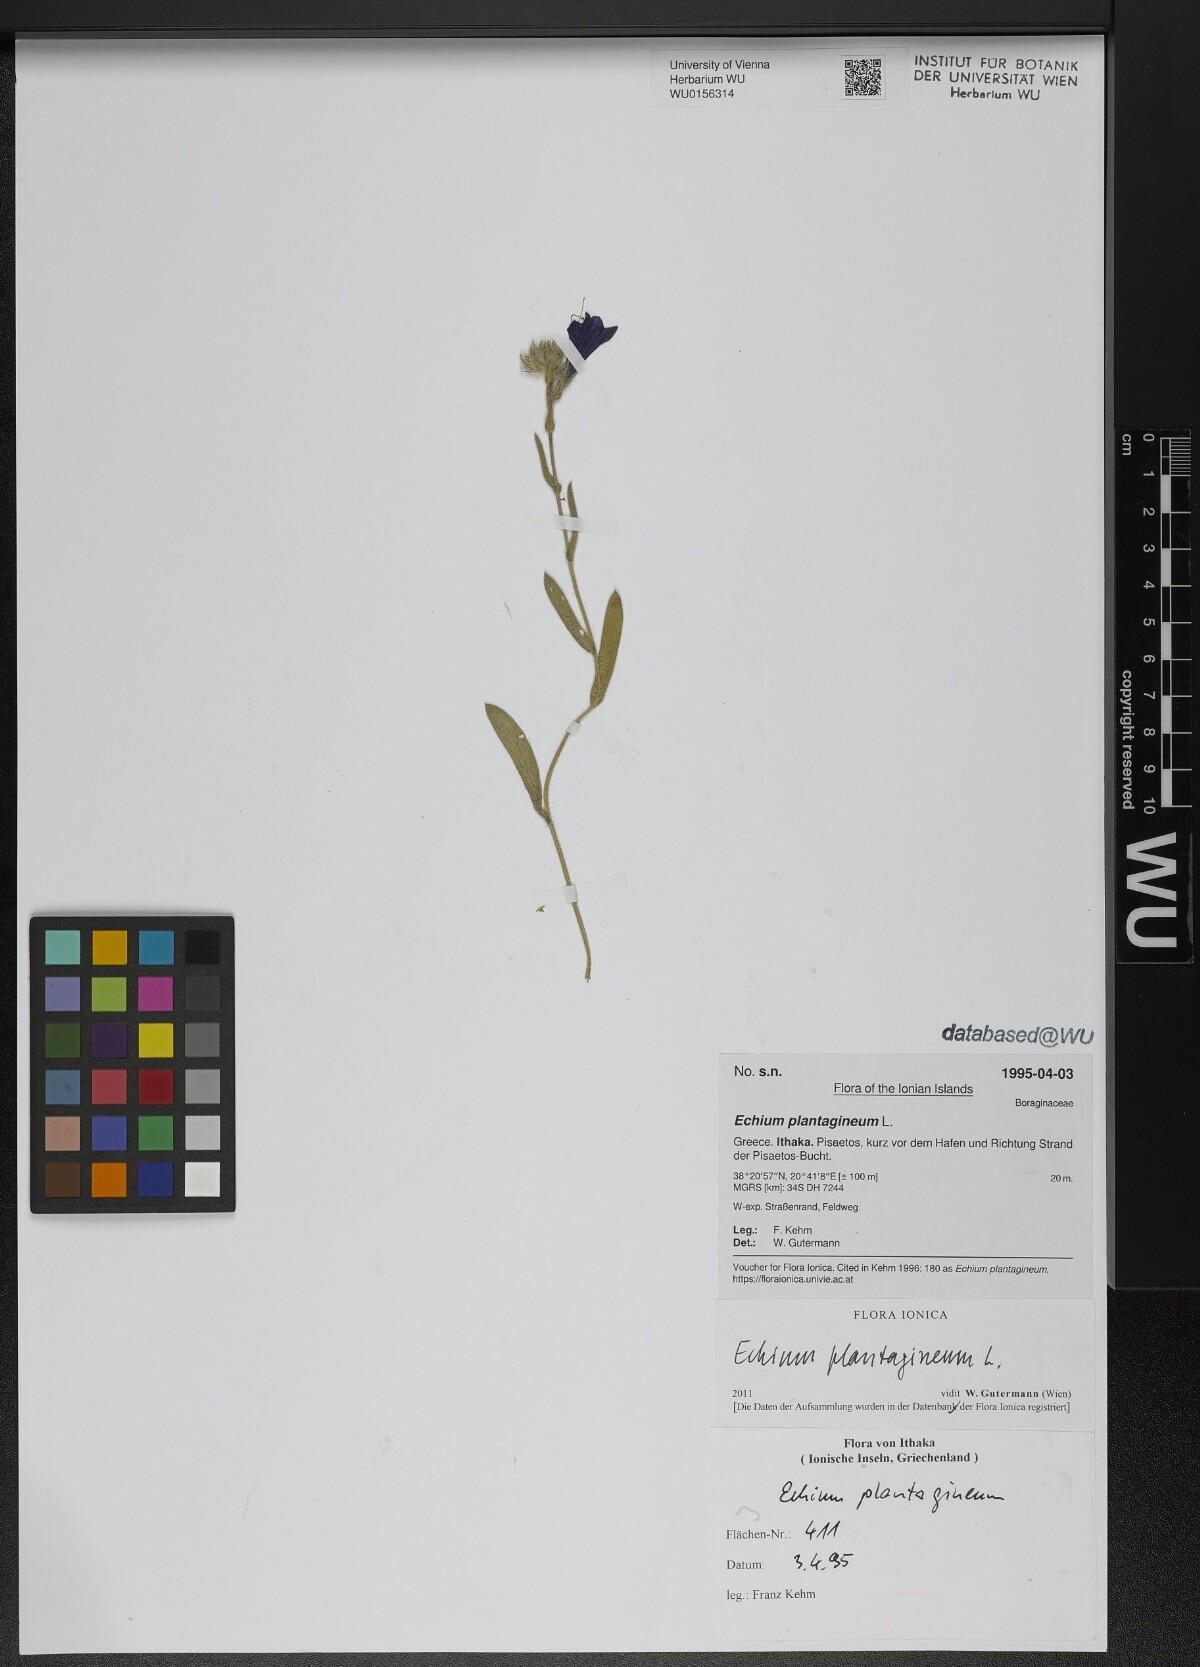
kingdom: Plantae
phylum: Tracheophyta
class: Magnoliopsida
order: Boraginales
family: Boraginaceae
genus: Echium
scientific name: Echium plantagineum
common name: Purple viper's-bugloss
